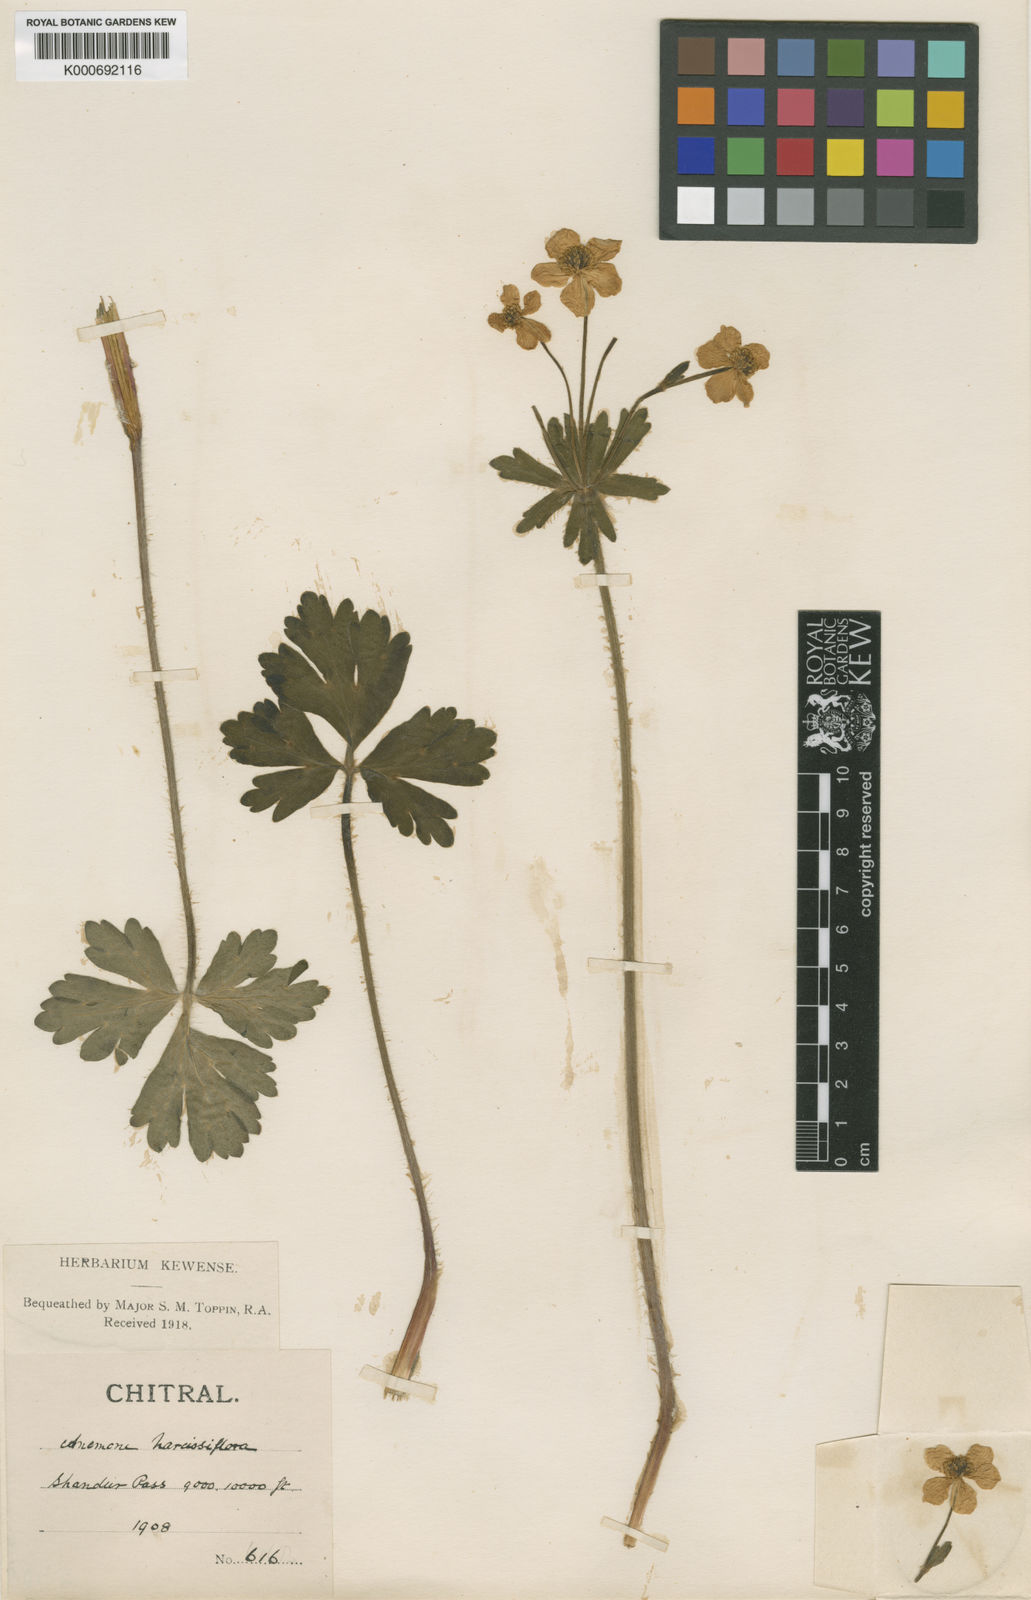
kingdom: Plantae
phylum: Tracheophyta
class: Magnoliopsida
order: Ranunculales
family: Ranunculaceae
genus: Anemonastrum
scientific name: Anemonastrum narcissiflorum
